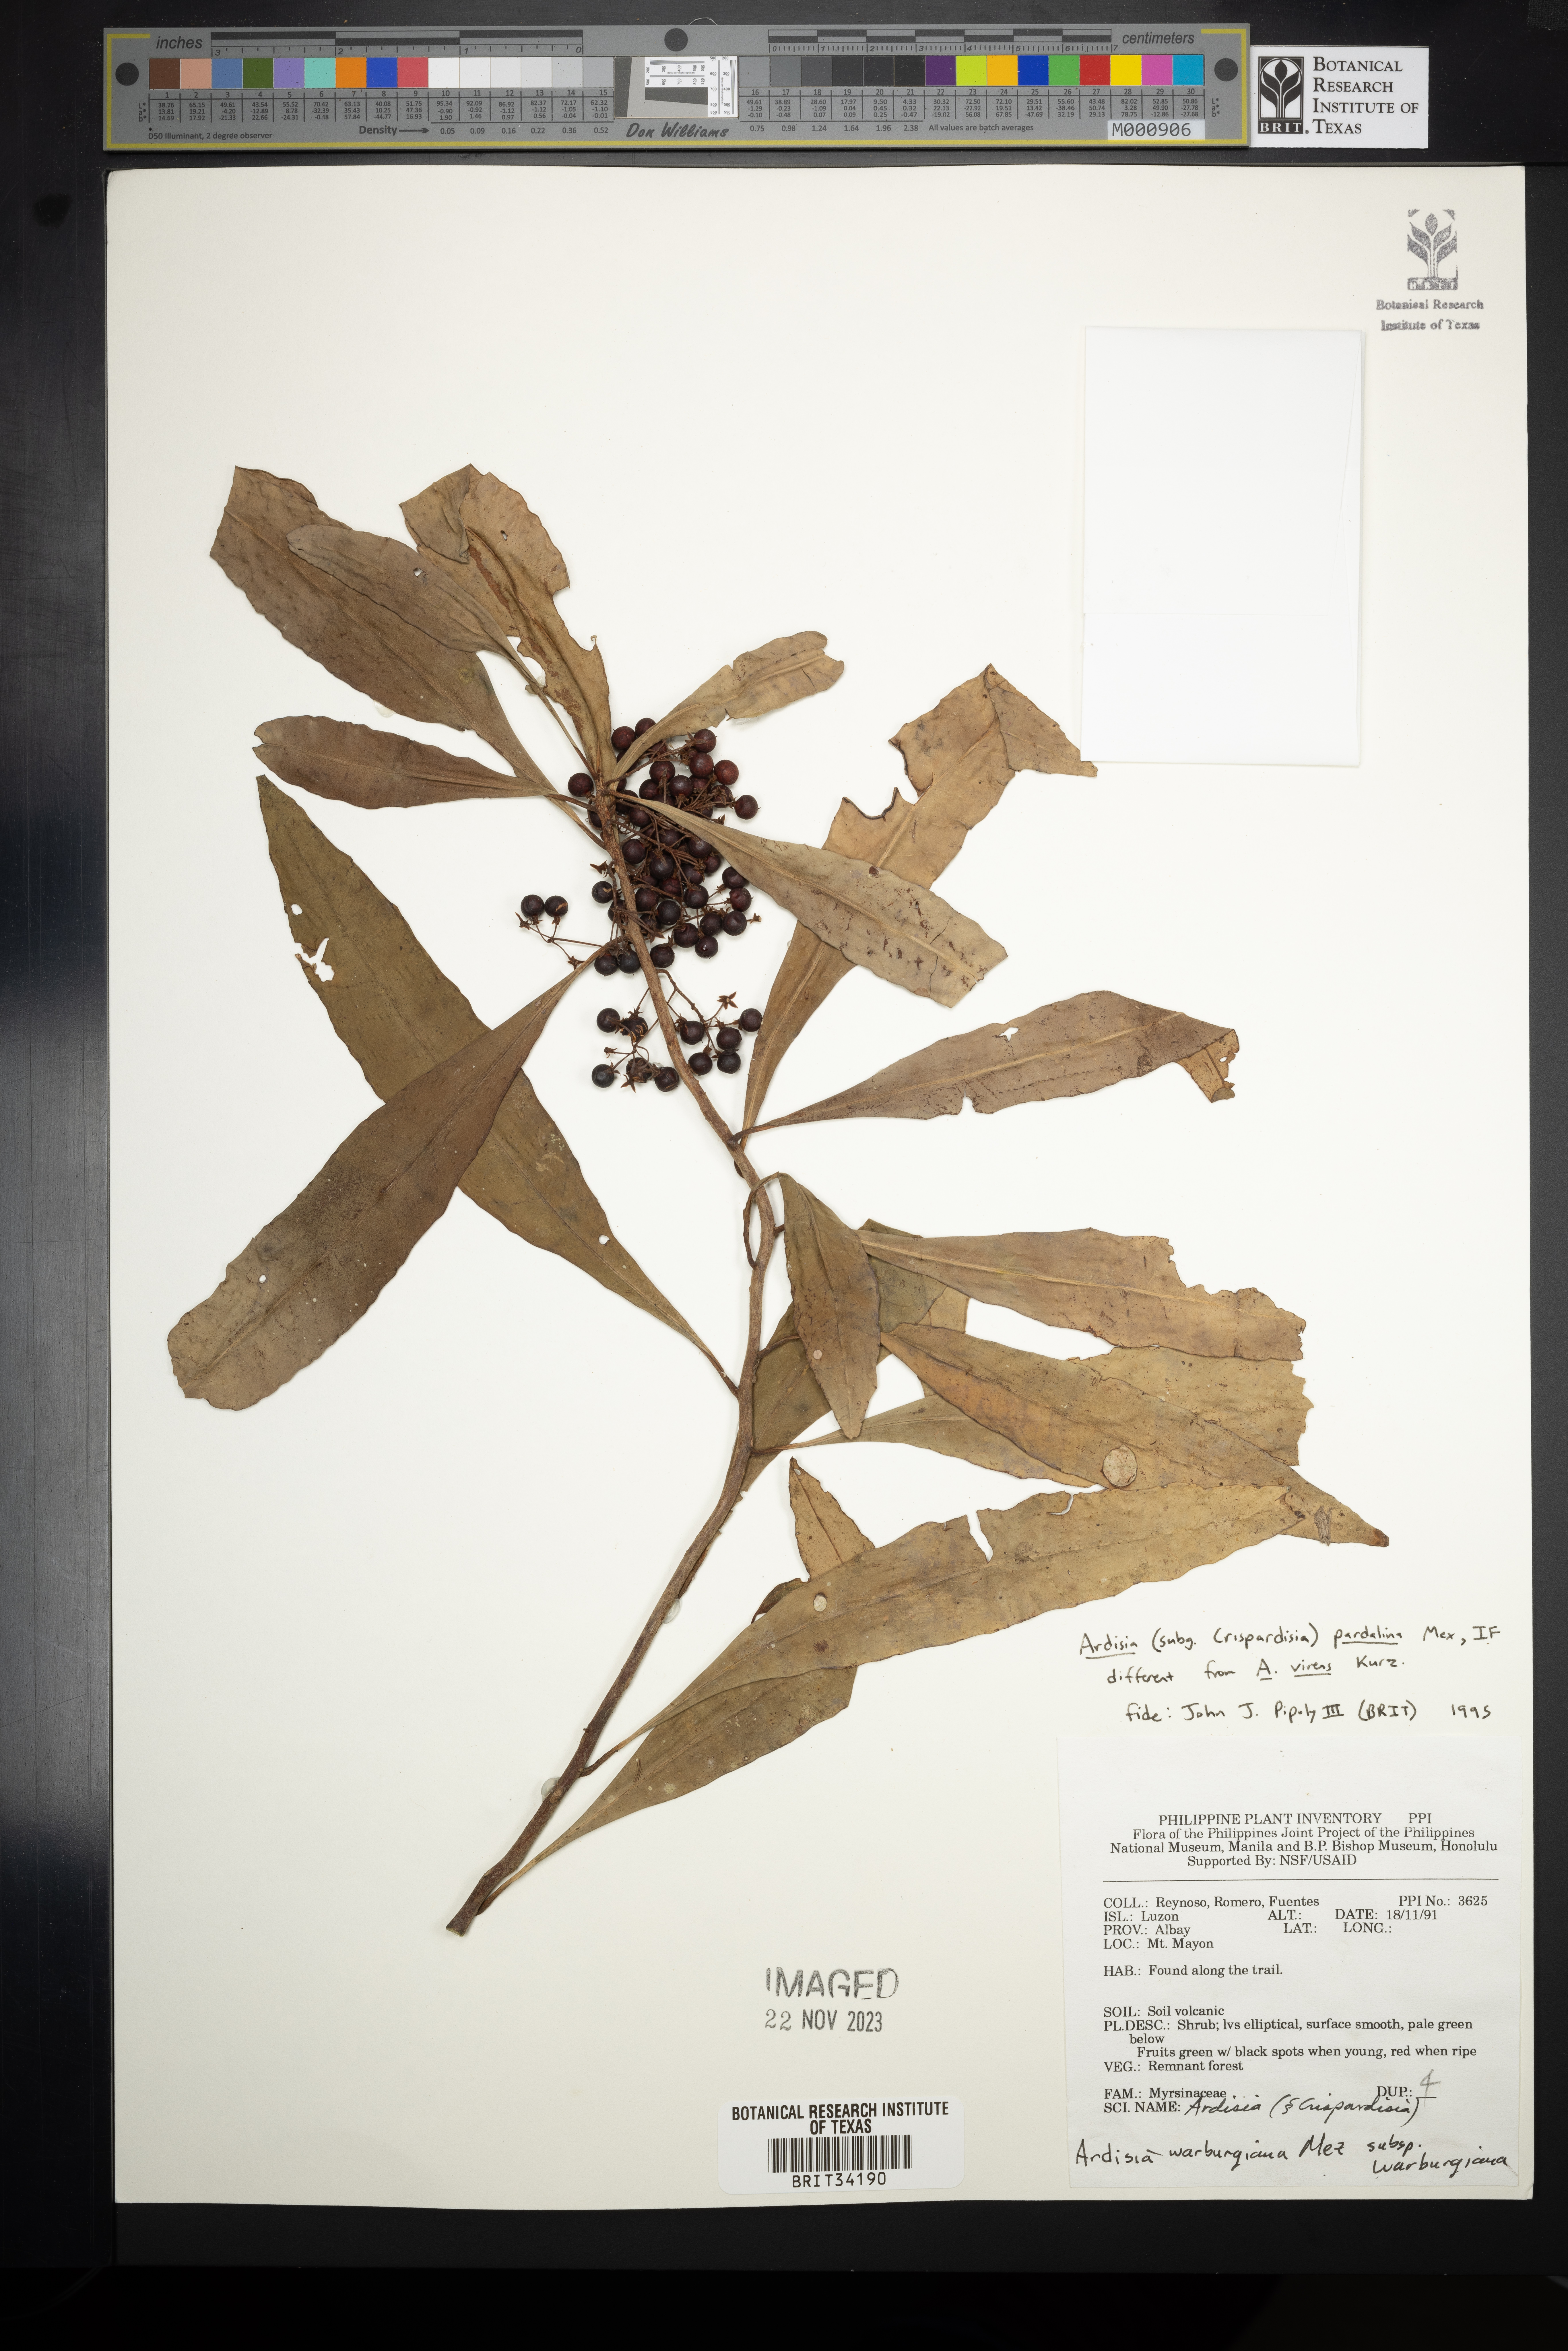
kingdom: Plantae
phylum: Tracheophyta
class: Magnoliopsida
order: Ericales
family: Primulaceae
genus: Ardisia
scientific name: Ardisia warburgiana
